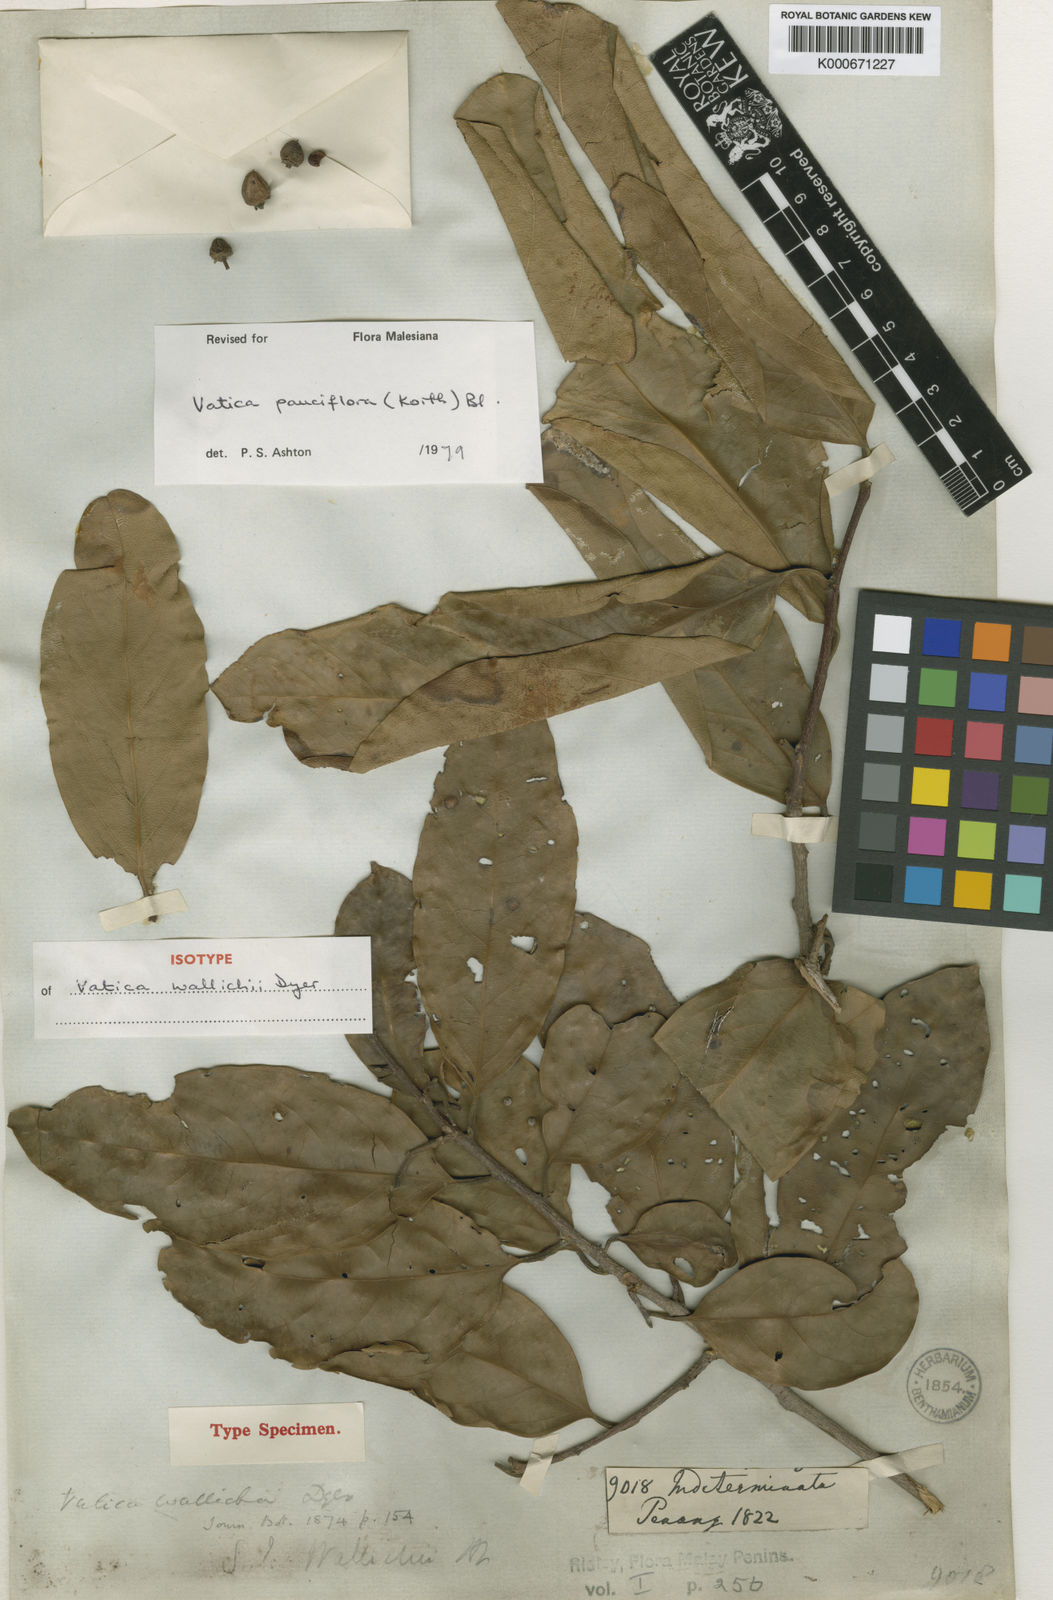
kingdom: Plantae
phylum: Tracheophyta
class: Magnoliopsida
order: Malvales
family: Dipterocarpaceae
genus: Vatica
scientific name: Vatica pauciflora
